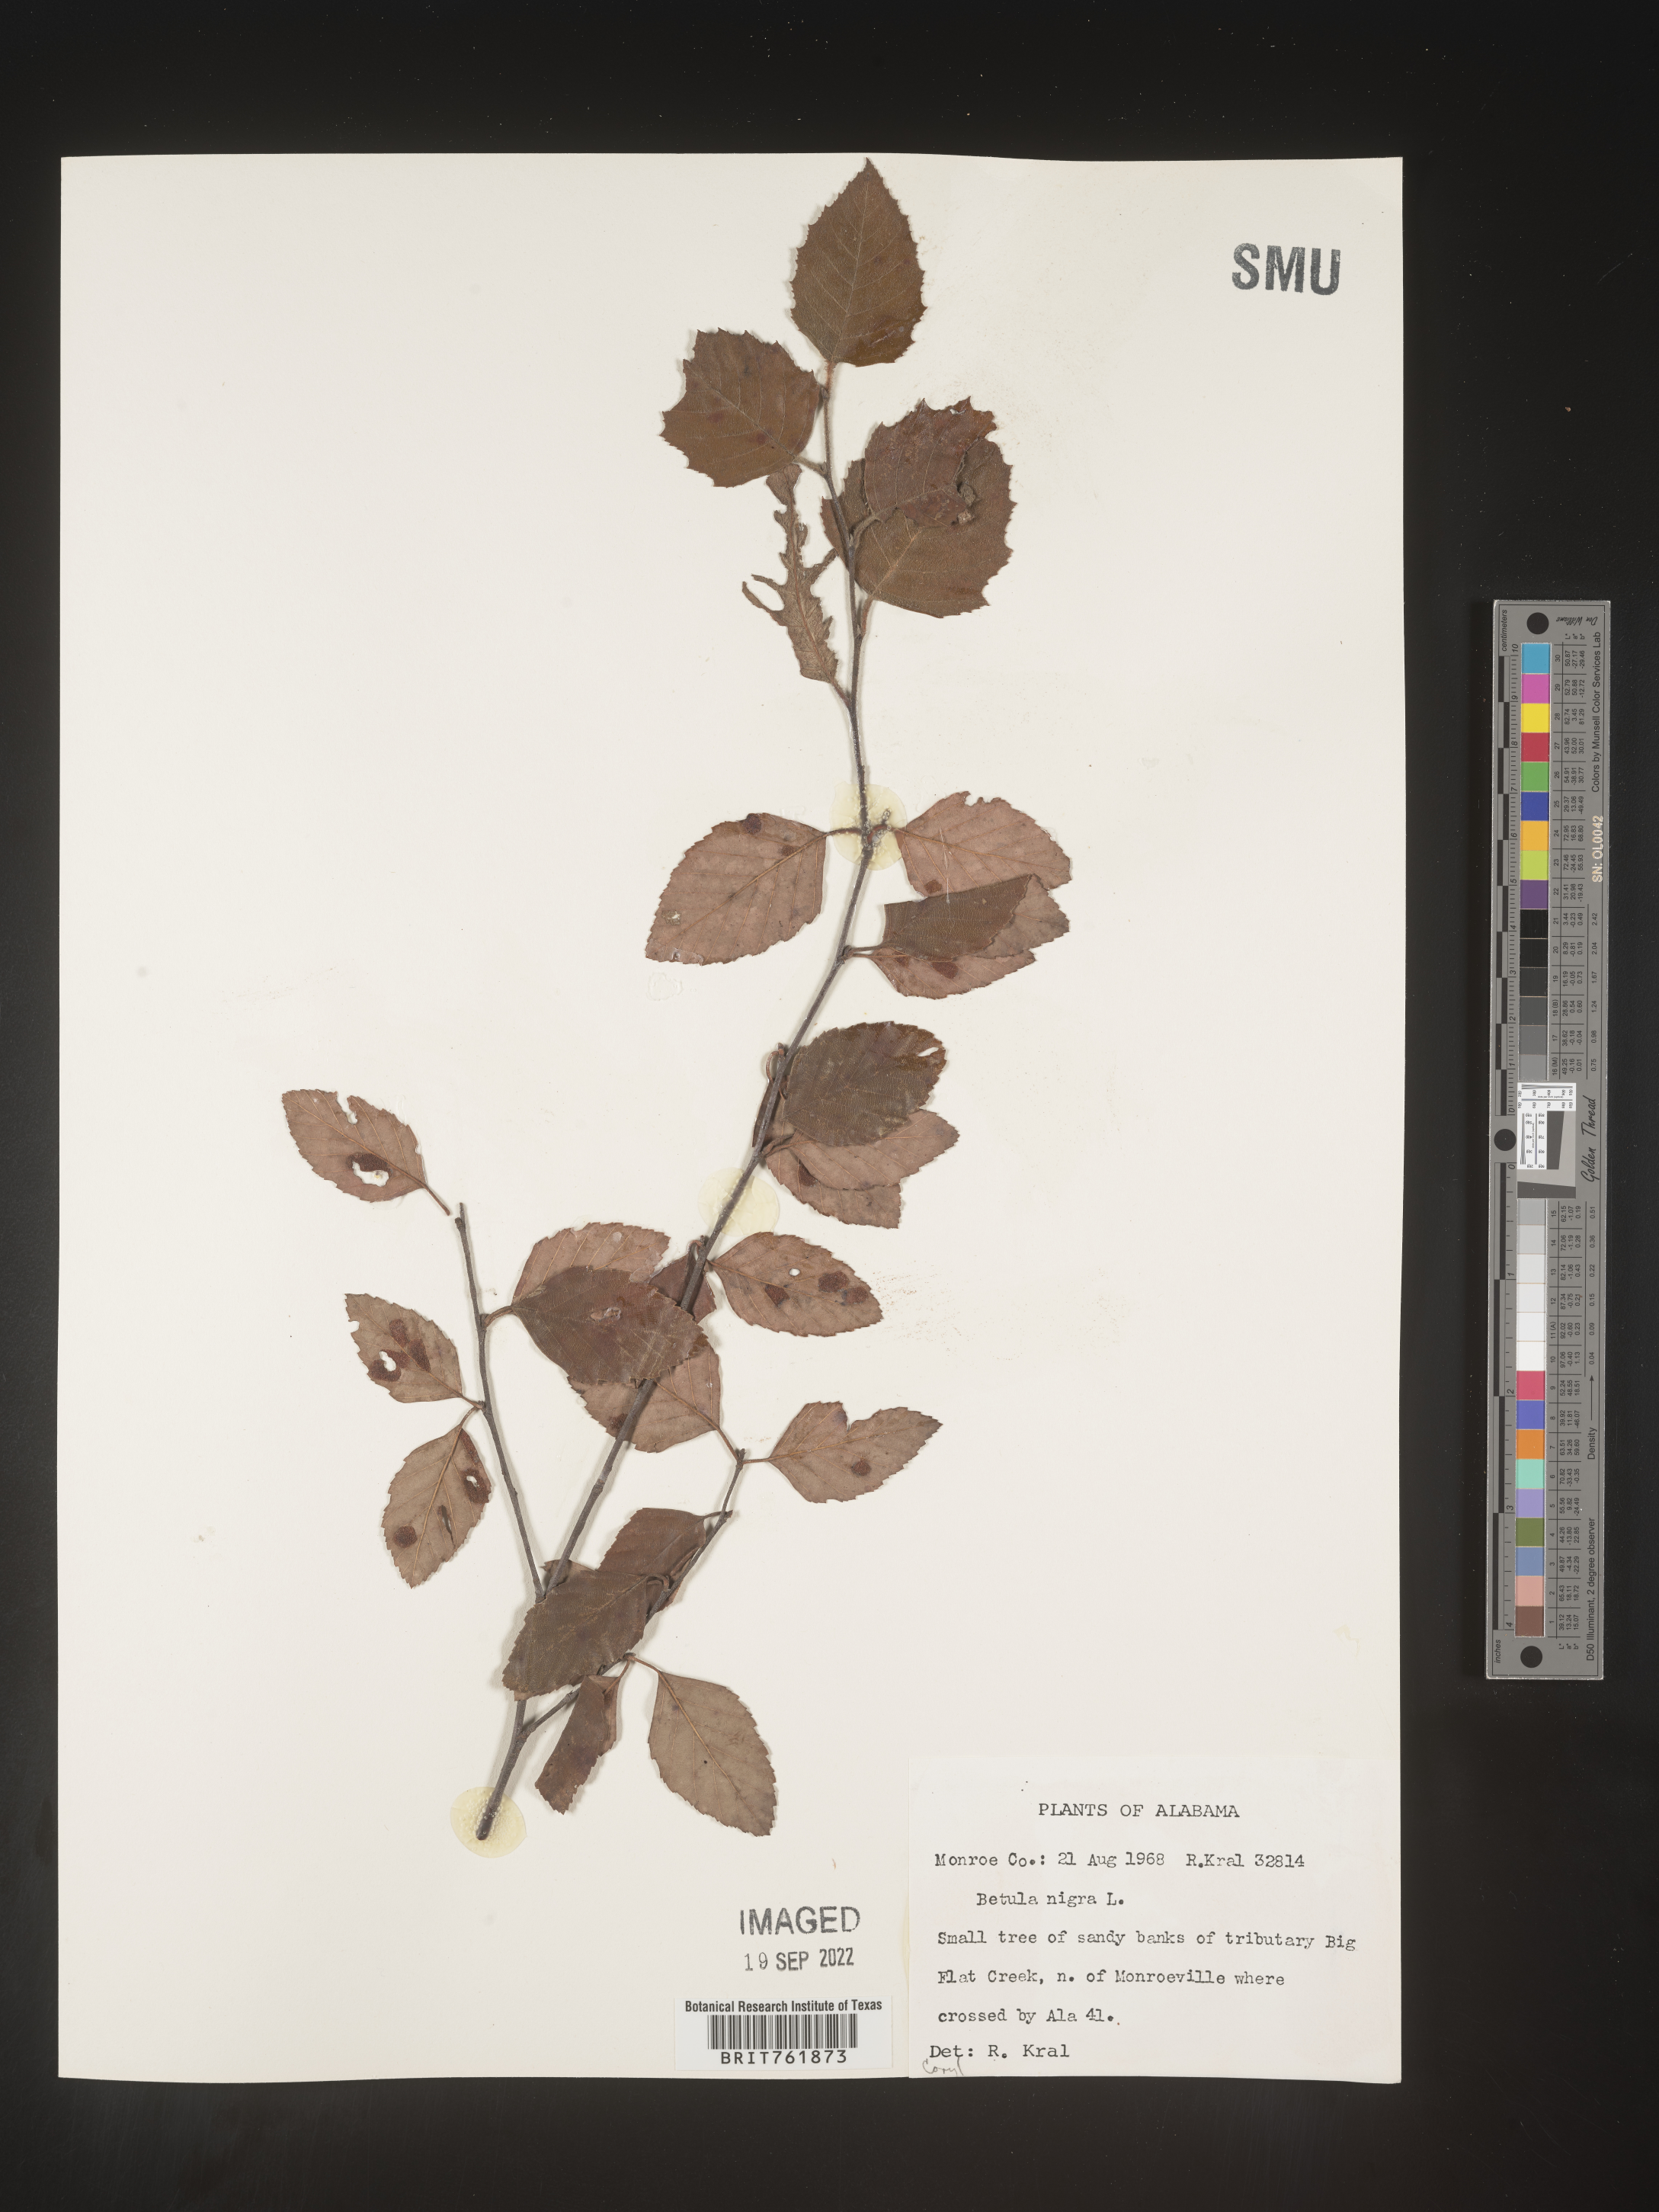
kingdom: Plantae
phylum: Tracheophyta
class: Magnoliopsida
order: Fagales
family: Betulaceae
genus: Betula
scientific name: Betula nigra
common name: Black birch
